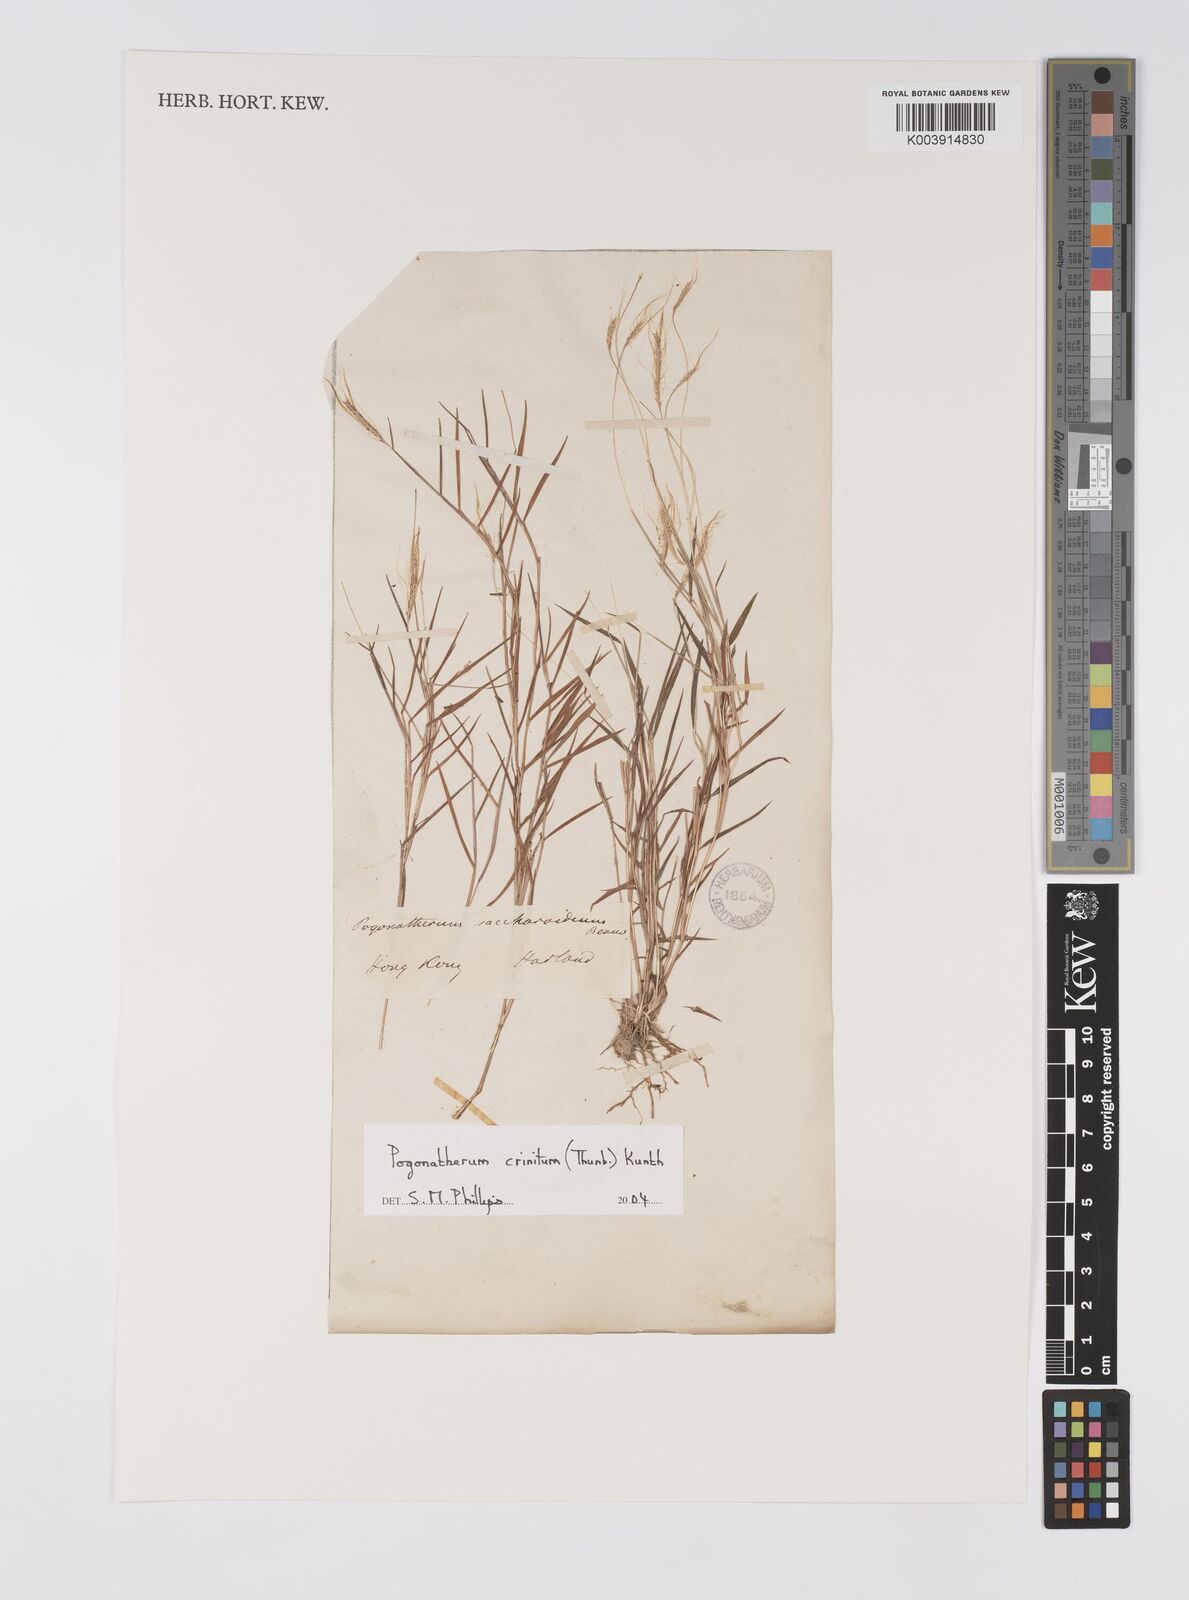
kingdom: Plantae
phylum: Tracheophyta
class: Liliopsida
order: Poales
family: Poaceae
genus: Pogonatherum
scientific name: Pogonatherum crinitum
